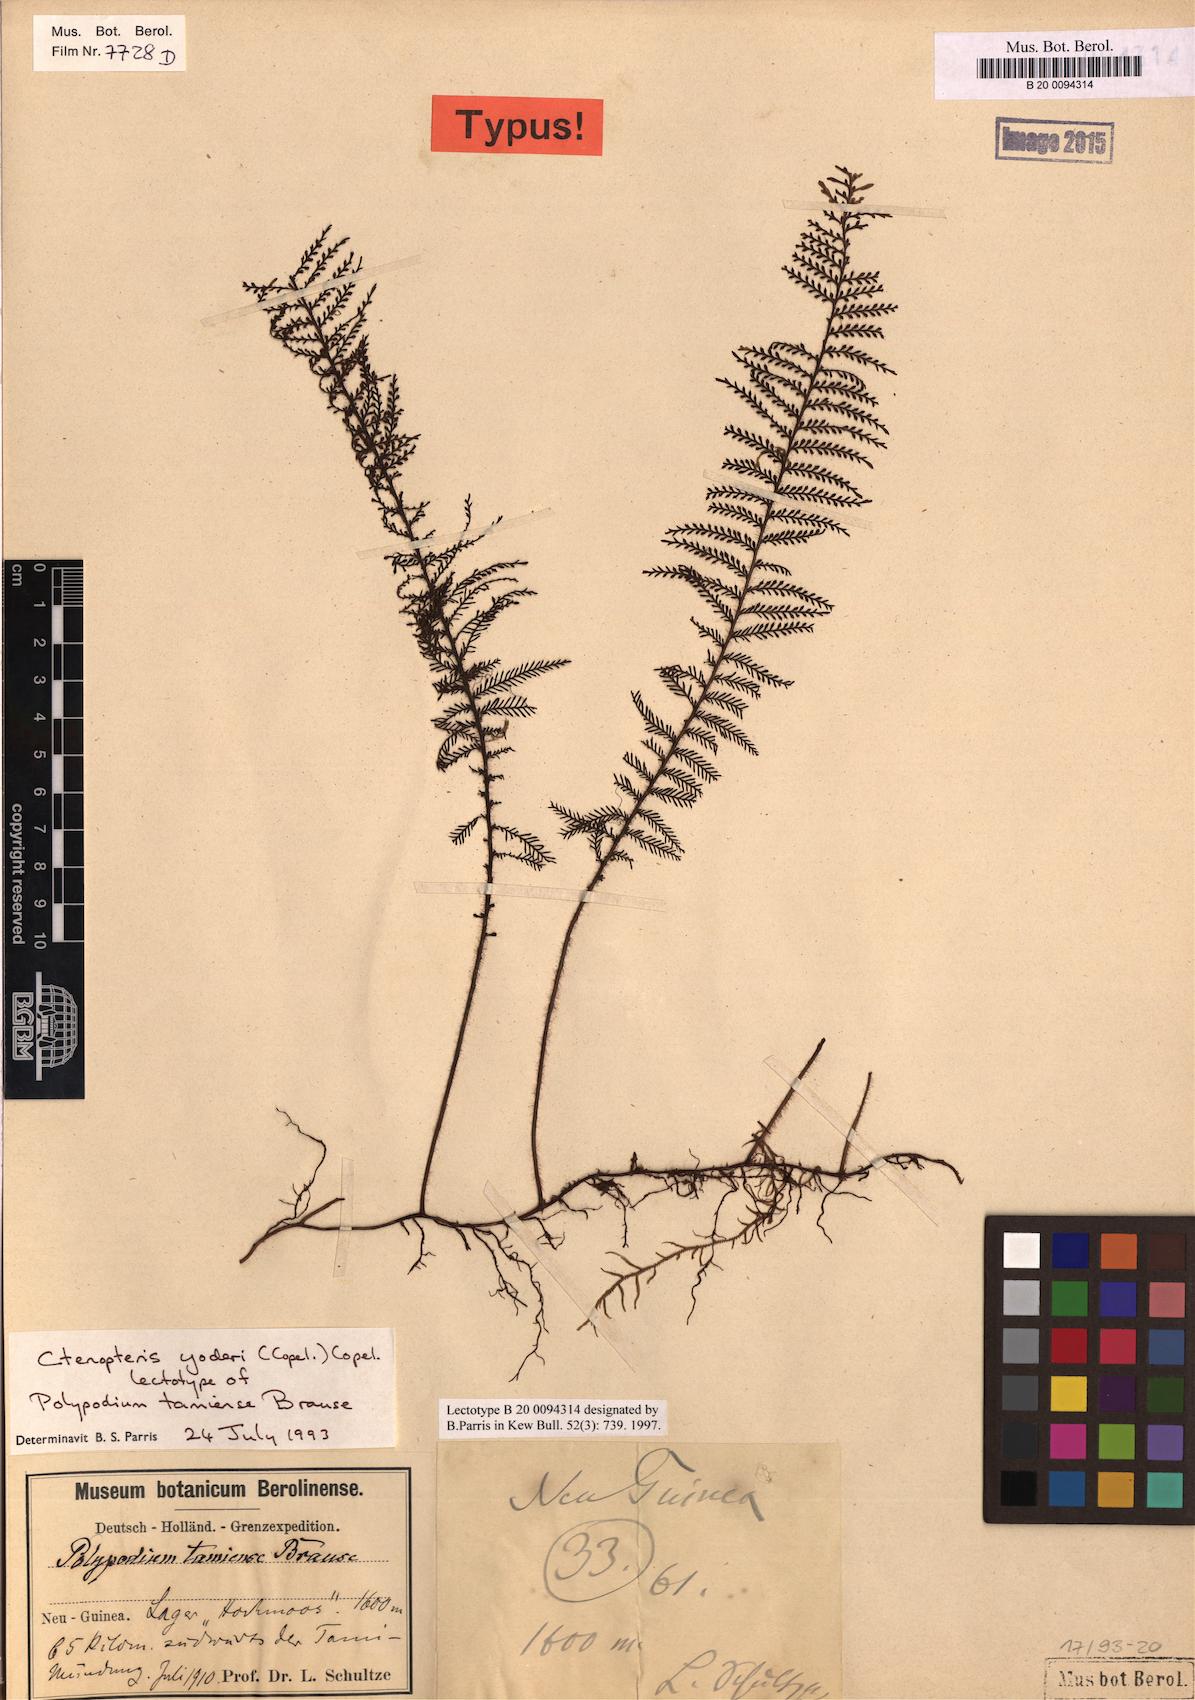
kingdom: Plantae
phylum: Tracheophyta
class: Polypodiopsida
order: Polypodiales
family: Polypodiaceae
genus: Oreogrammitis
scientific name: Oreogrammitis yoderi
